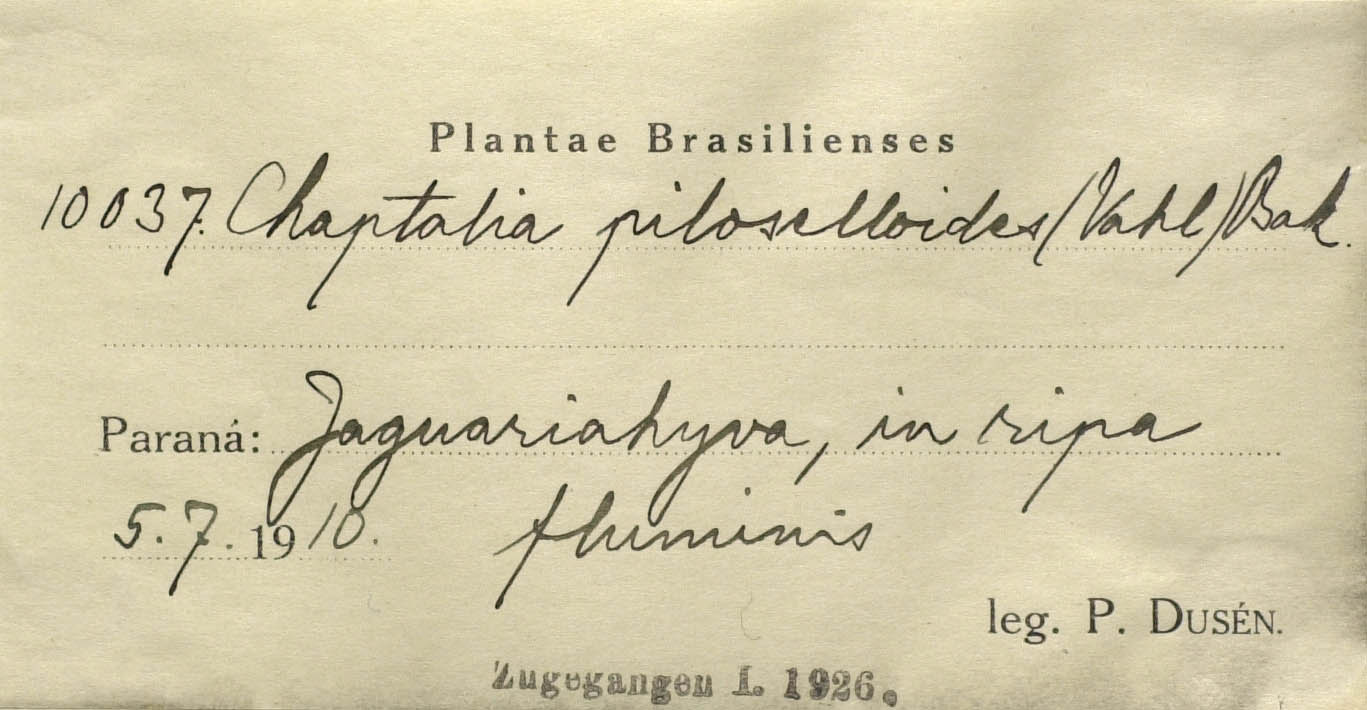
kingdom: Plantae
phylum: Tracheophyta
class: Magnoliopsida
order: Asterales
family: Asteraceae
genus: Chaptalia
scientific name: Chaptalia graminifolia
